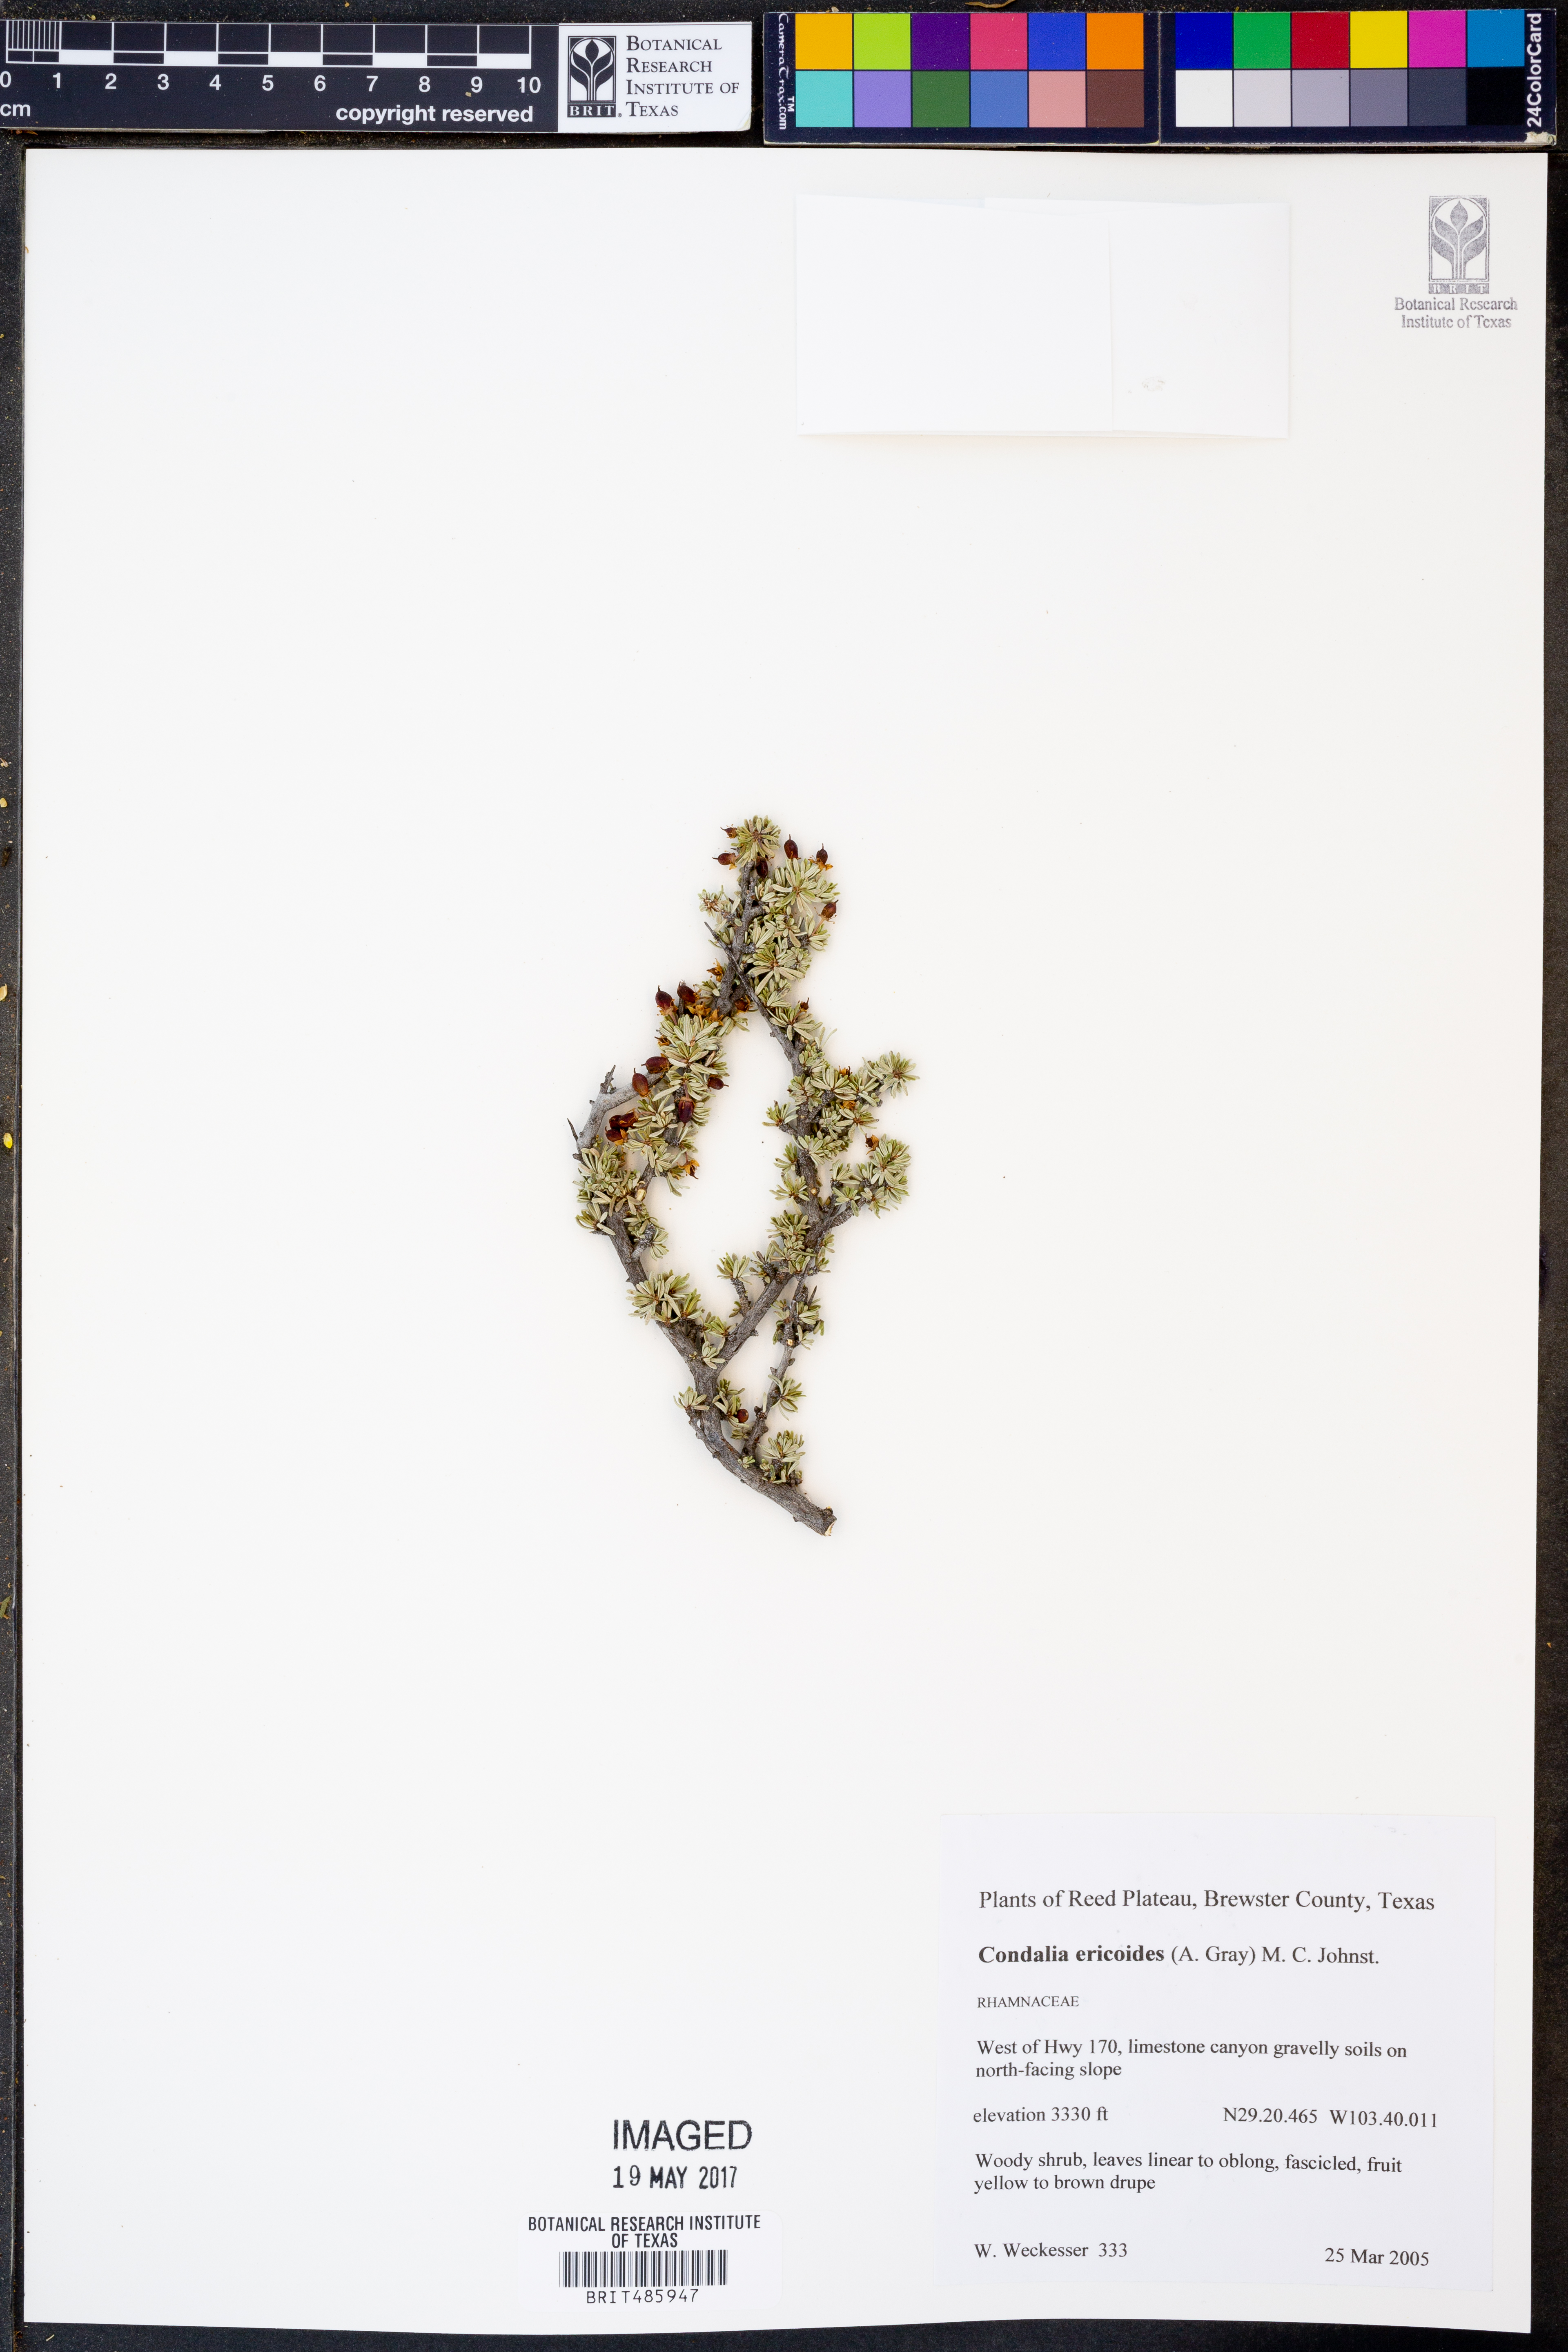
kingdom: Plantae
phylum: Tracheophyta
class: Magnoliopsida
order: Rosales
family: Rhamnaceae
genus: Condalia
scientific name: Condalia ericoides
